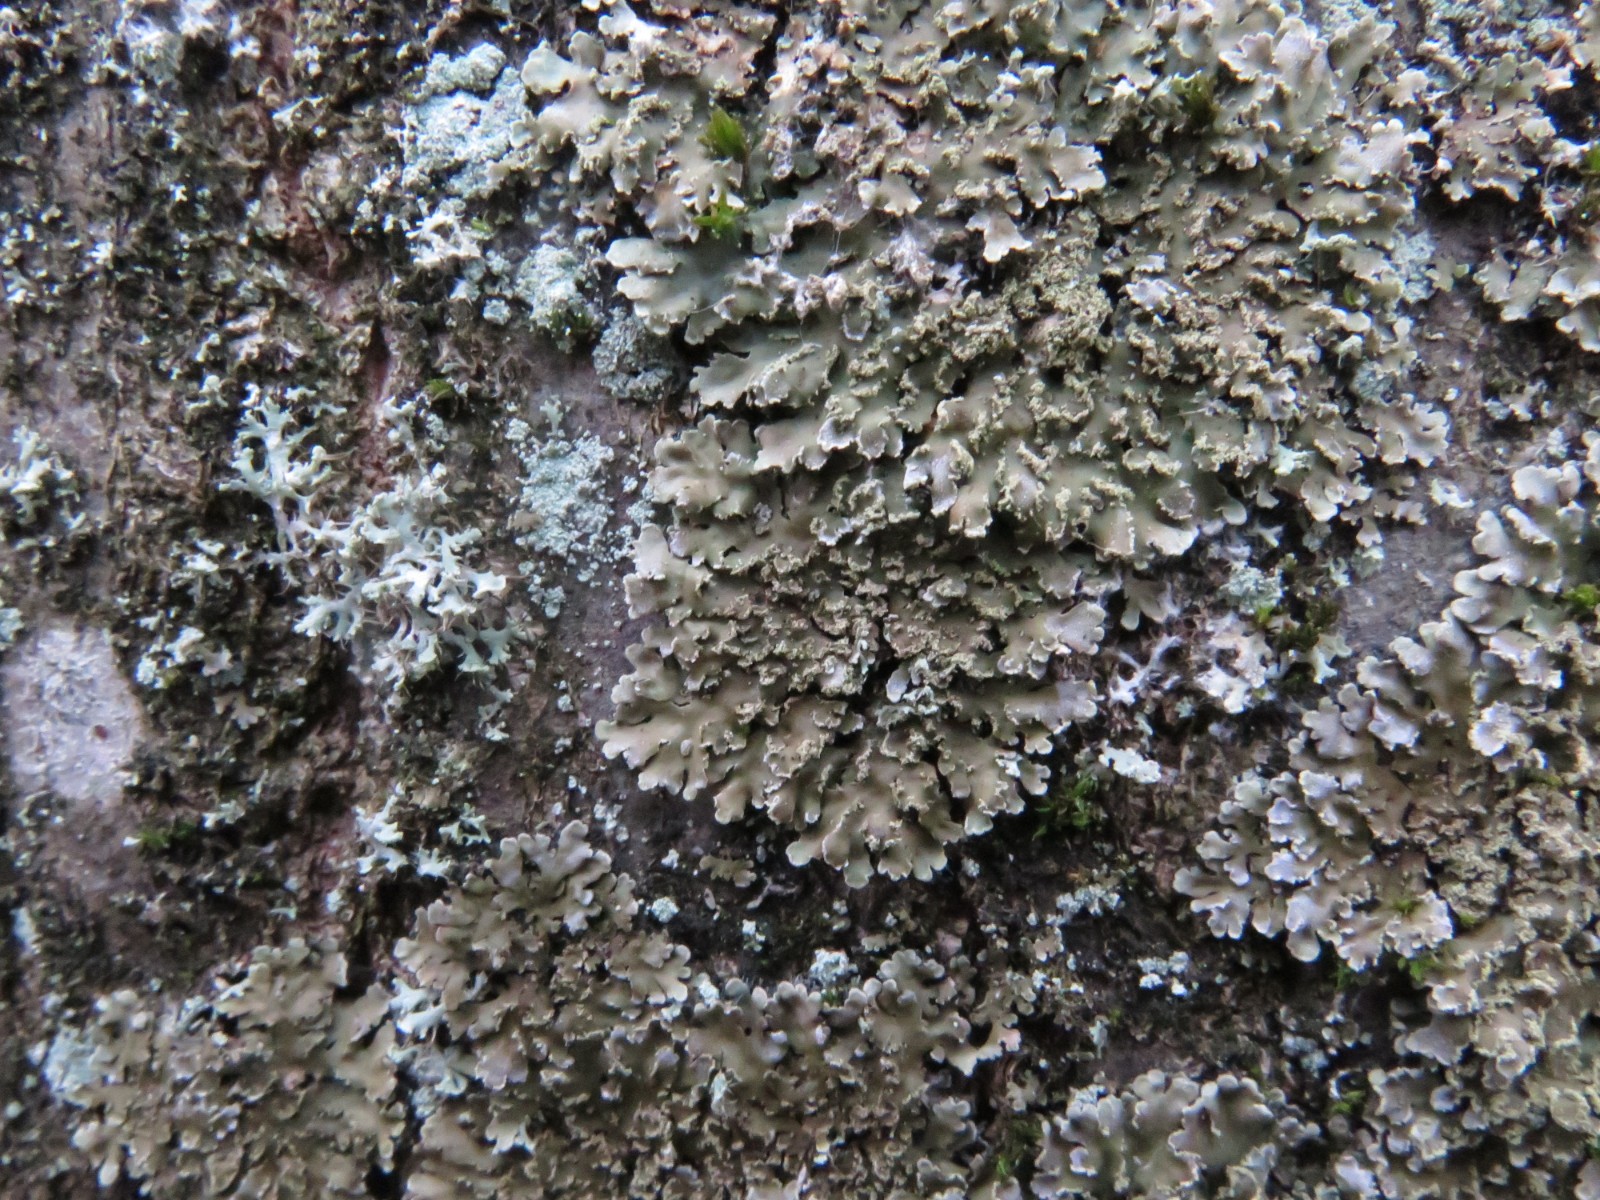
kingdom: Fungi
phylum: Ascomycota
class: Lecanoromycetes
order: Caliciales
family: Physciaceae
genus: Poeltonia
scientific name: Poeltonia grisea
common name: hvidgrå dugrosetlav
